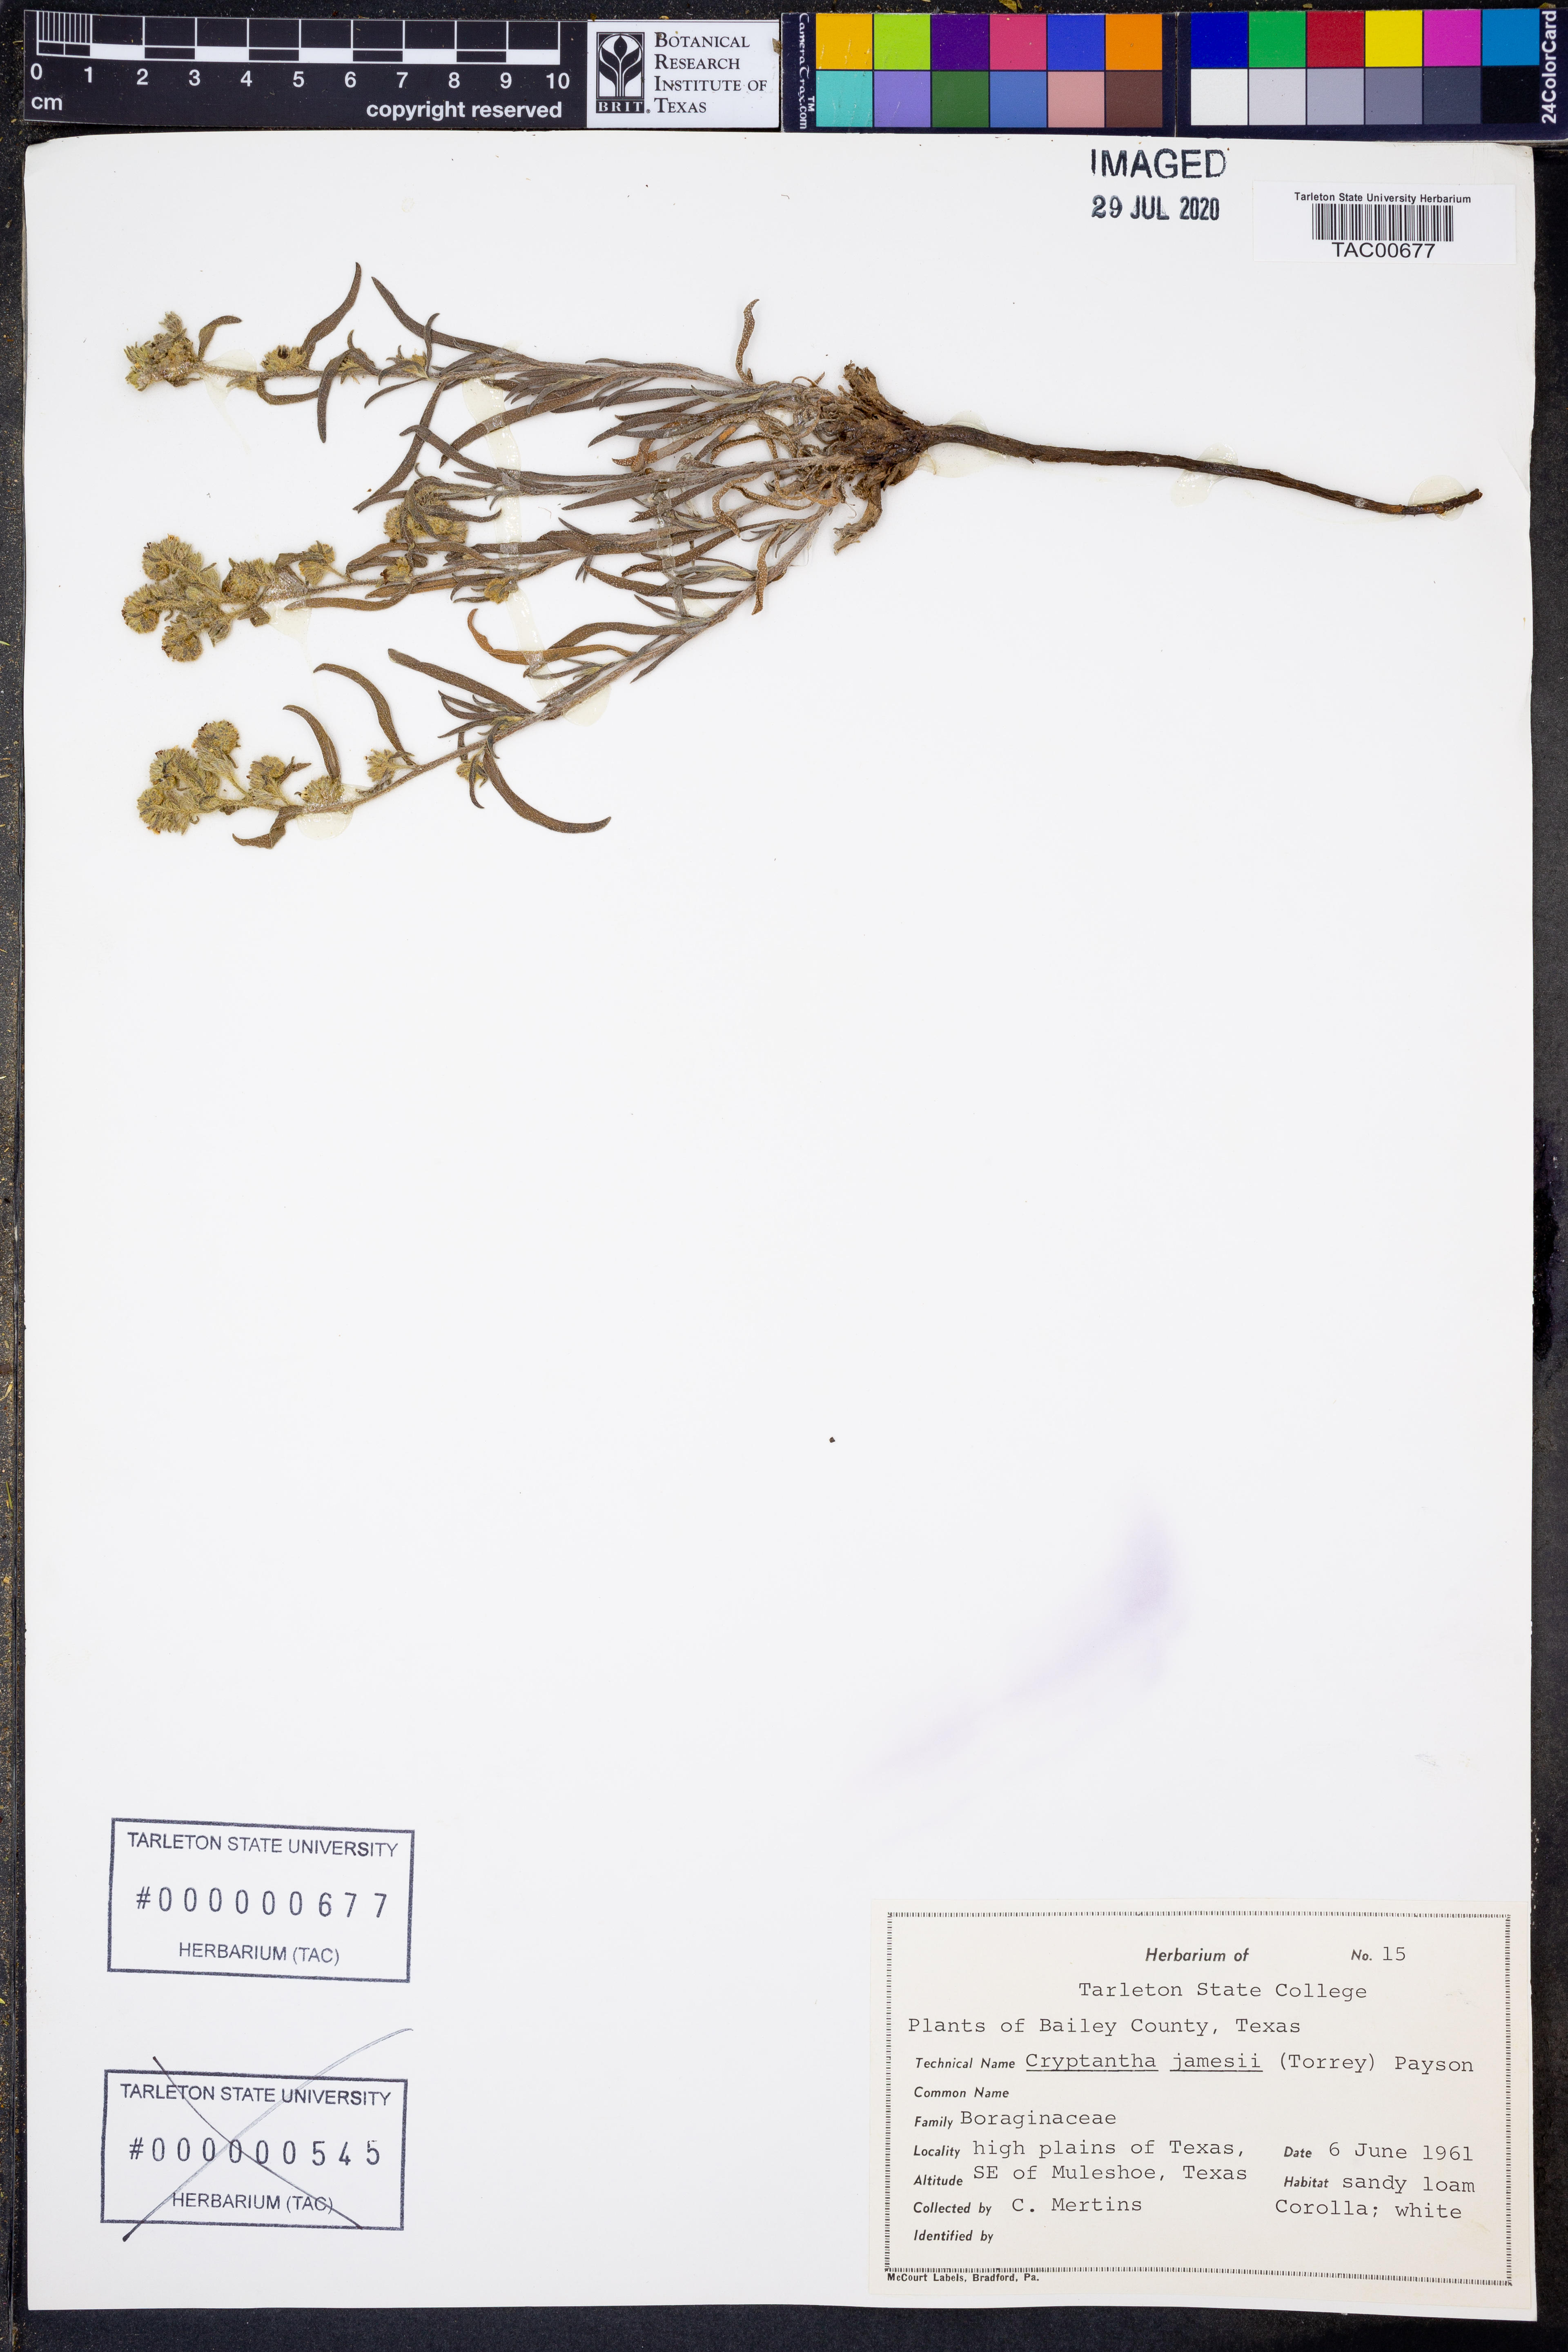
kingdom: Plantae
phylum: Tracheophyta
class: Magnoliopsida
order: Boraginales
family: Boraginaceae
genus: Oreocarya
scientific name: Oreocarya suffruticosa
